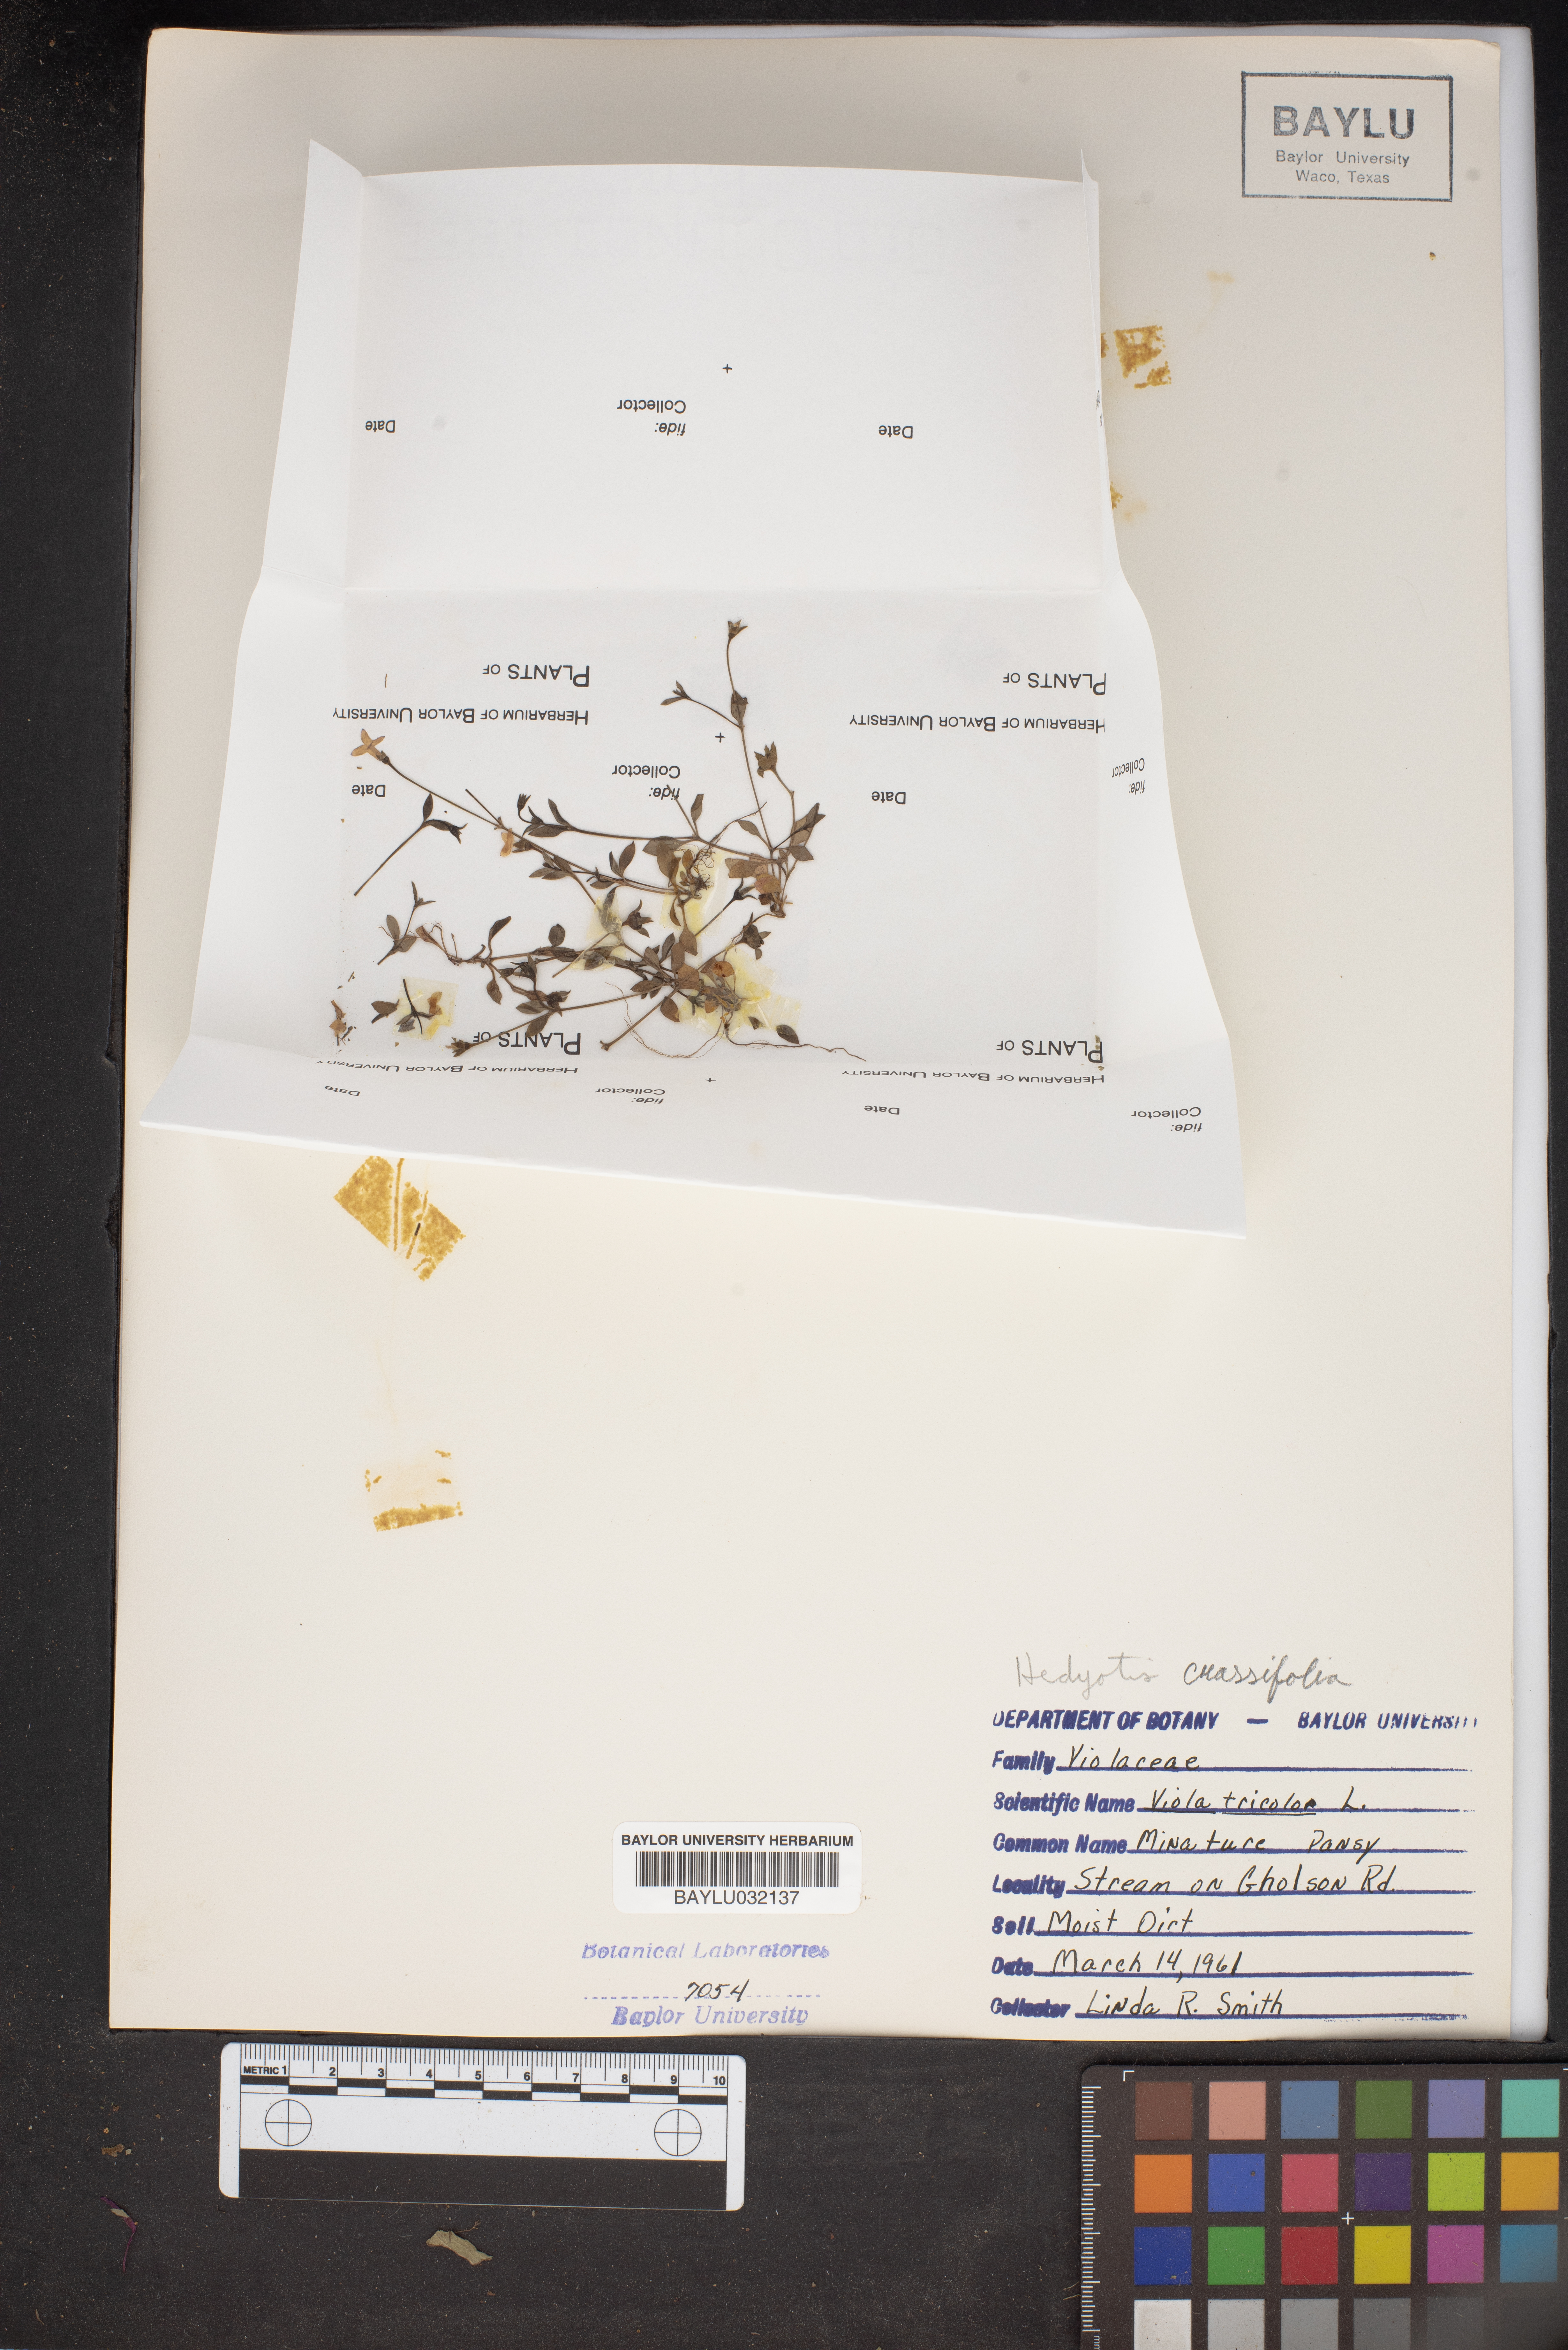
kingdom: Plantae
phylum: Tracheophyta
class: Magnoliopsida
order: Malpighiales
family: Violaceae
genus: Viola
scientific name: Viola tricolor
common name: Pansy
